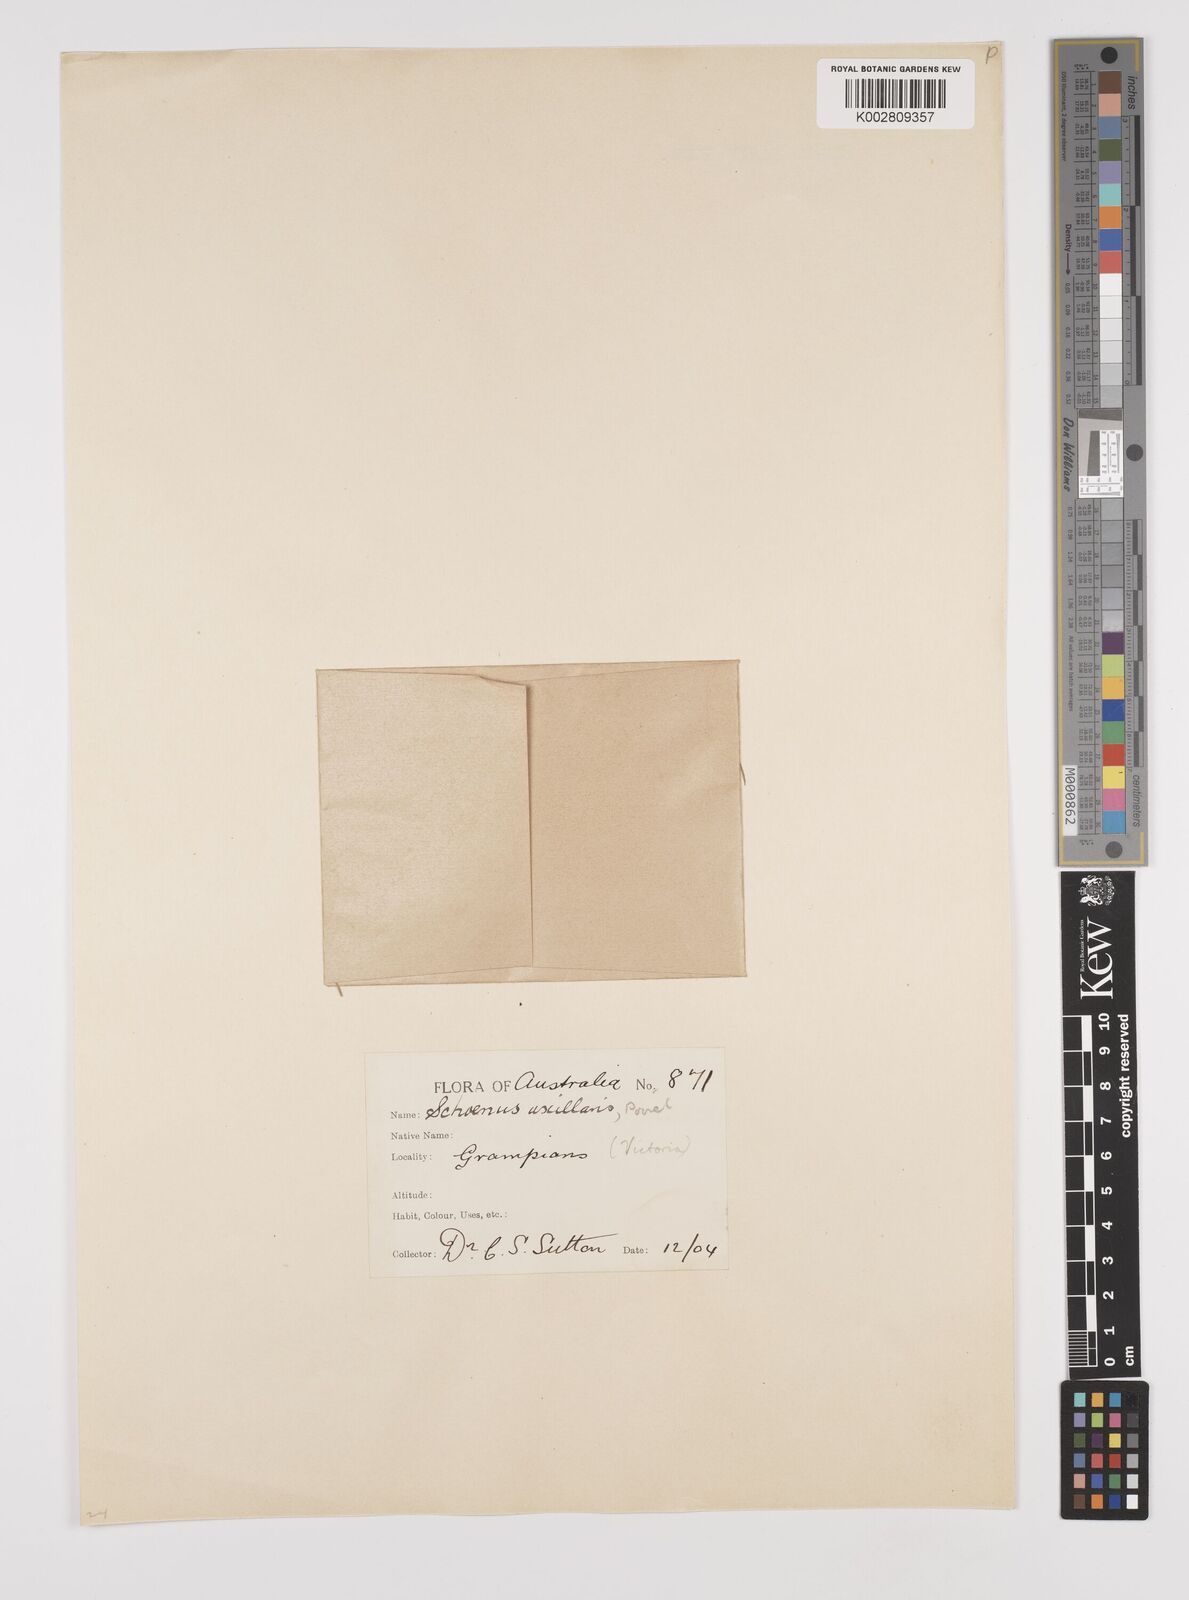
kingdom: Plantae
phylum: Tracheophyta
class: Liliopsida
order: Poales
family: Cyperaceae
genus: Schoenus
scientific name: Schoenus maschalinus
